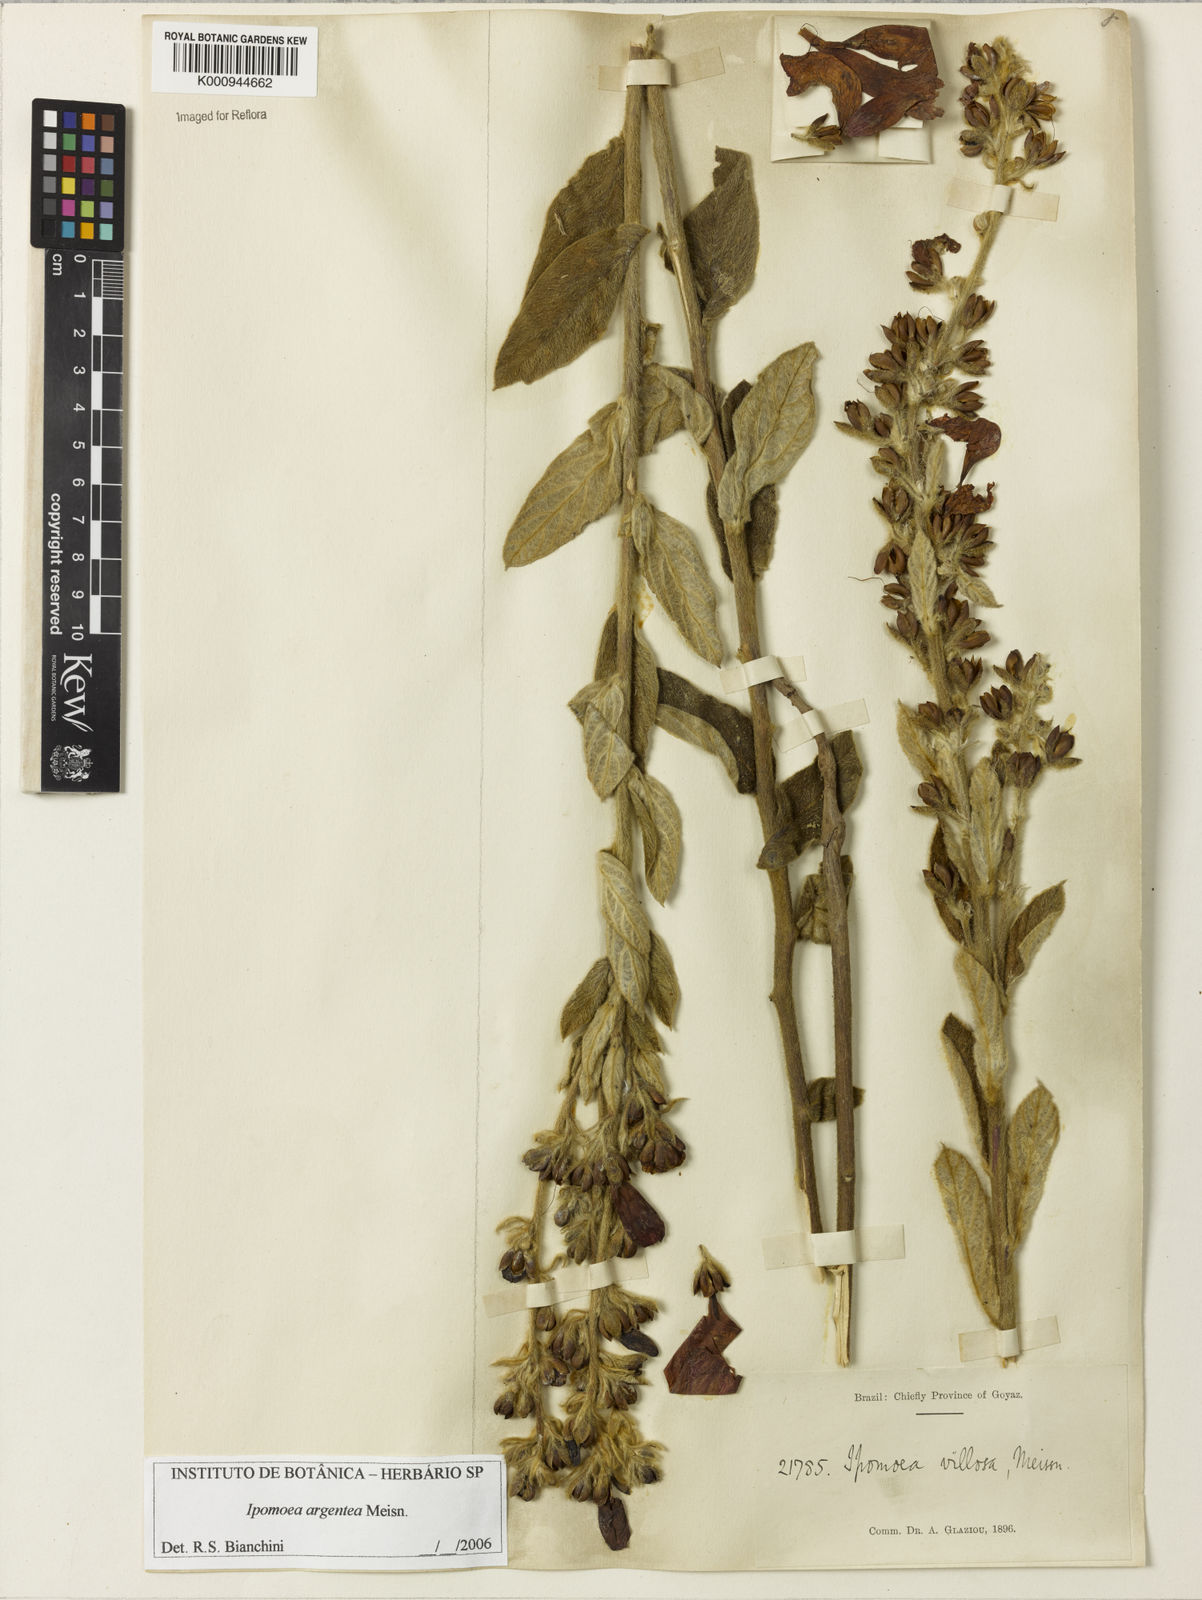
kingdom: Plantae
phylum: Tracheophyta
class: Magnoliopsida
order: Solanales
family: Convolvulaceae
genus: Ipomoea
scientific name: Ipomoea purpurea
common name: Common morning-glory
